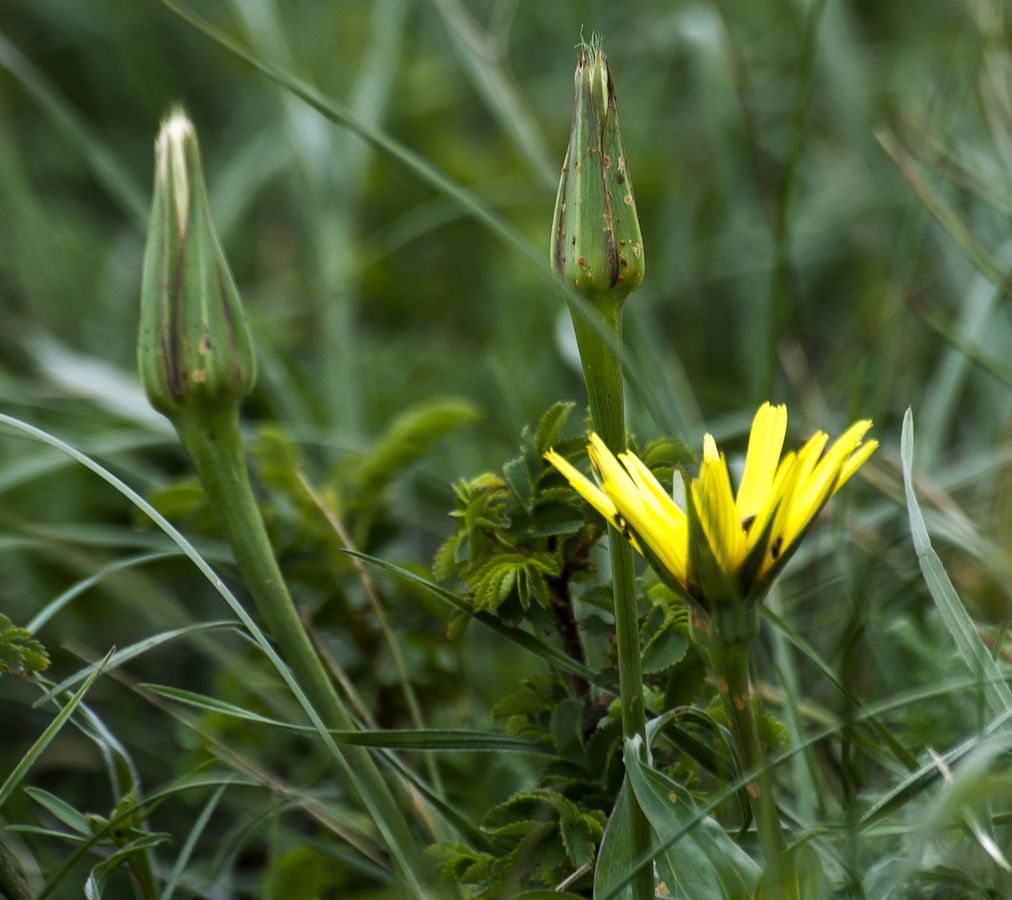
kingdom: Plantae
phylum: Tracheophyta
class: Magnoliopsida
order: Asterales
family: Asteraceae
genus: Tragopogon
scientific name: Tragopogon tuberosus
